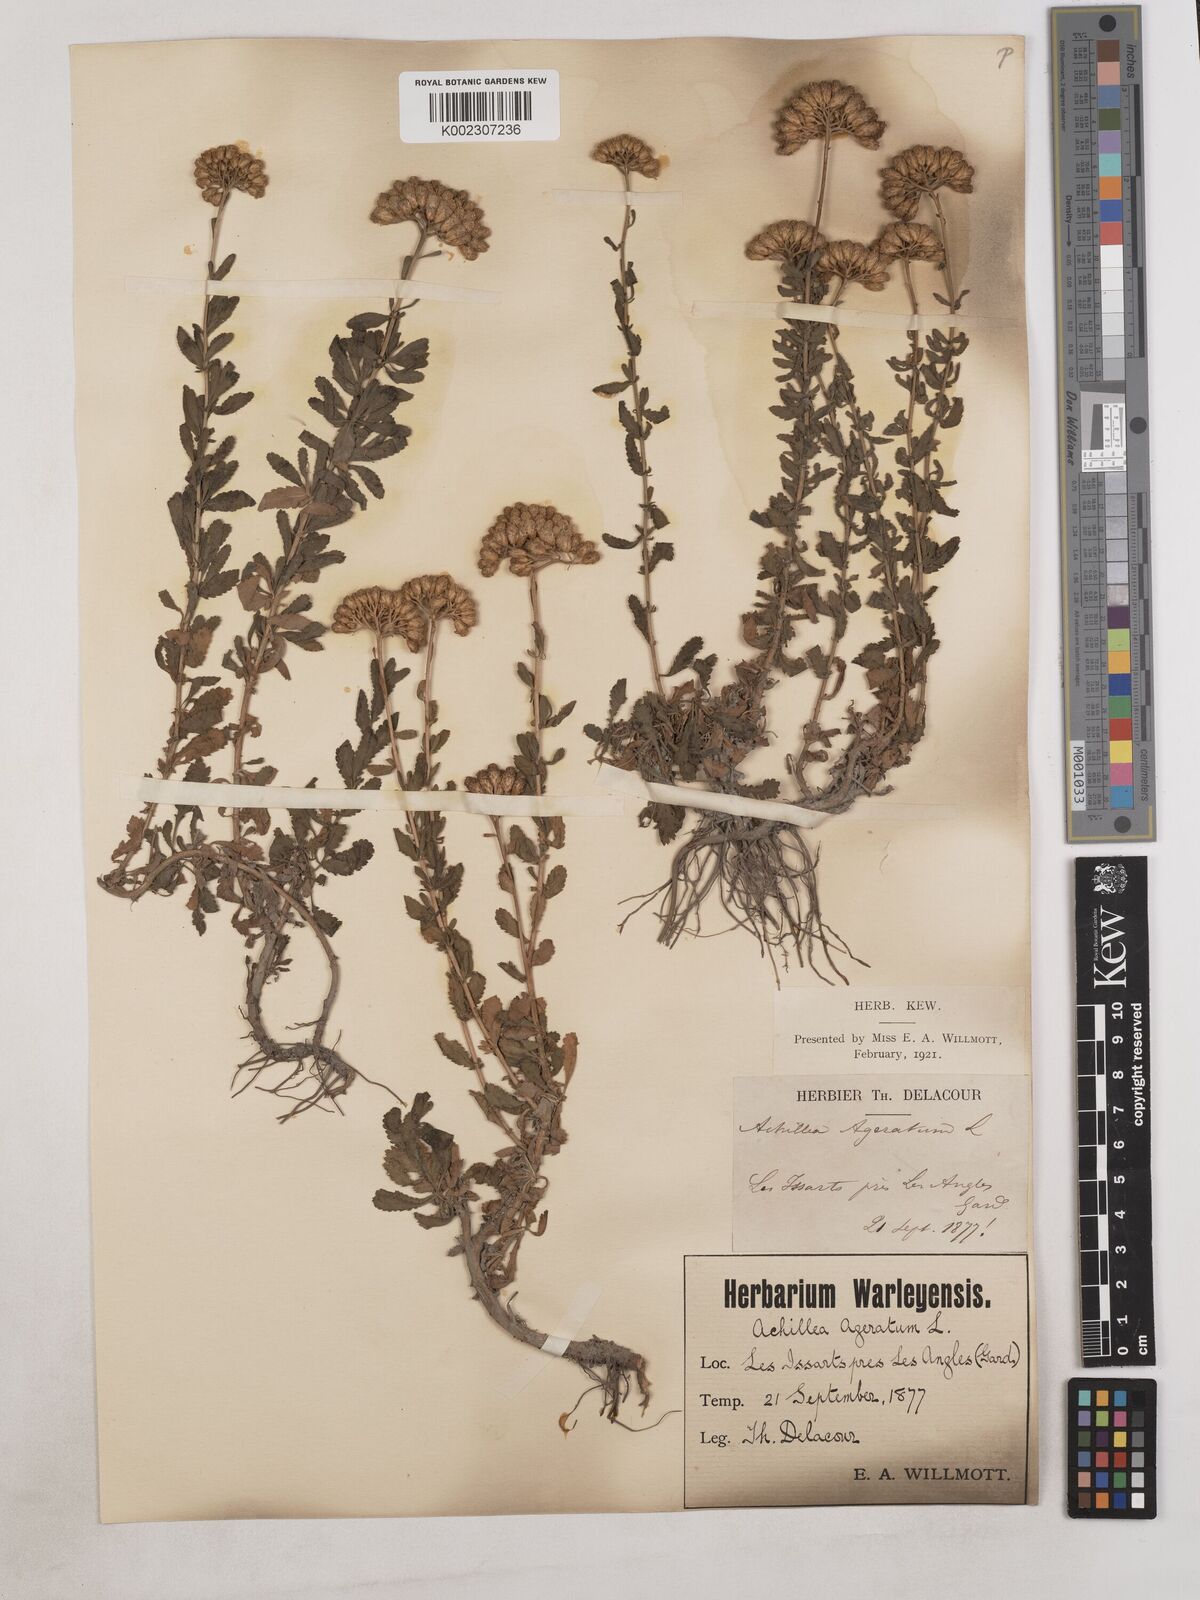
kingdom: Plantae
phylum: Tracheophyta
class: Magnoliopsida
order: Asterales
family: Asteraceae
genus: Achillea
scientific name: Achillea ageratum
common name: Sweet-nancy
